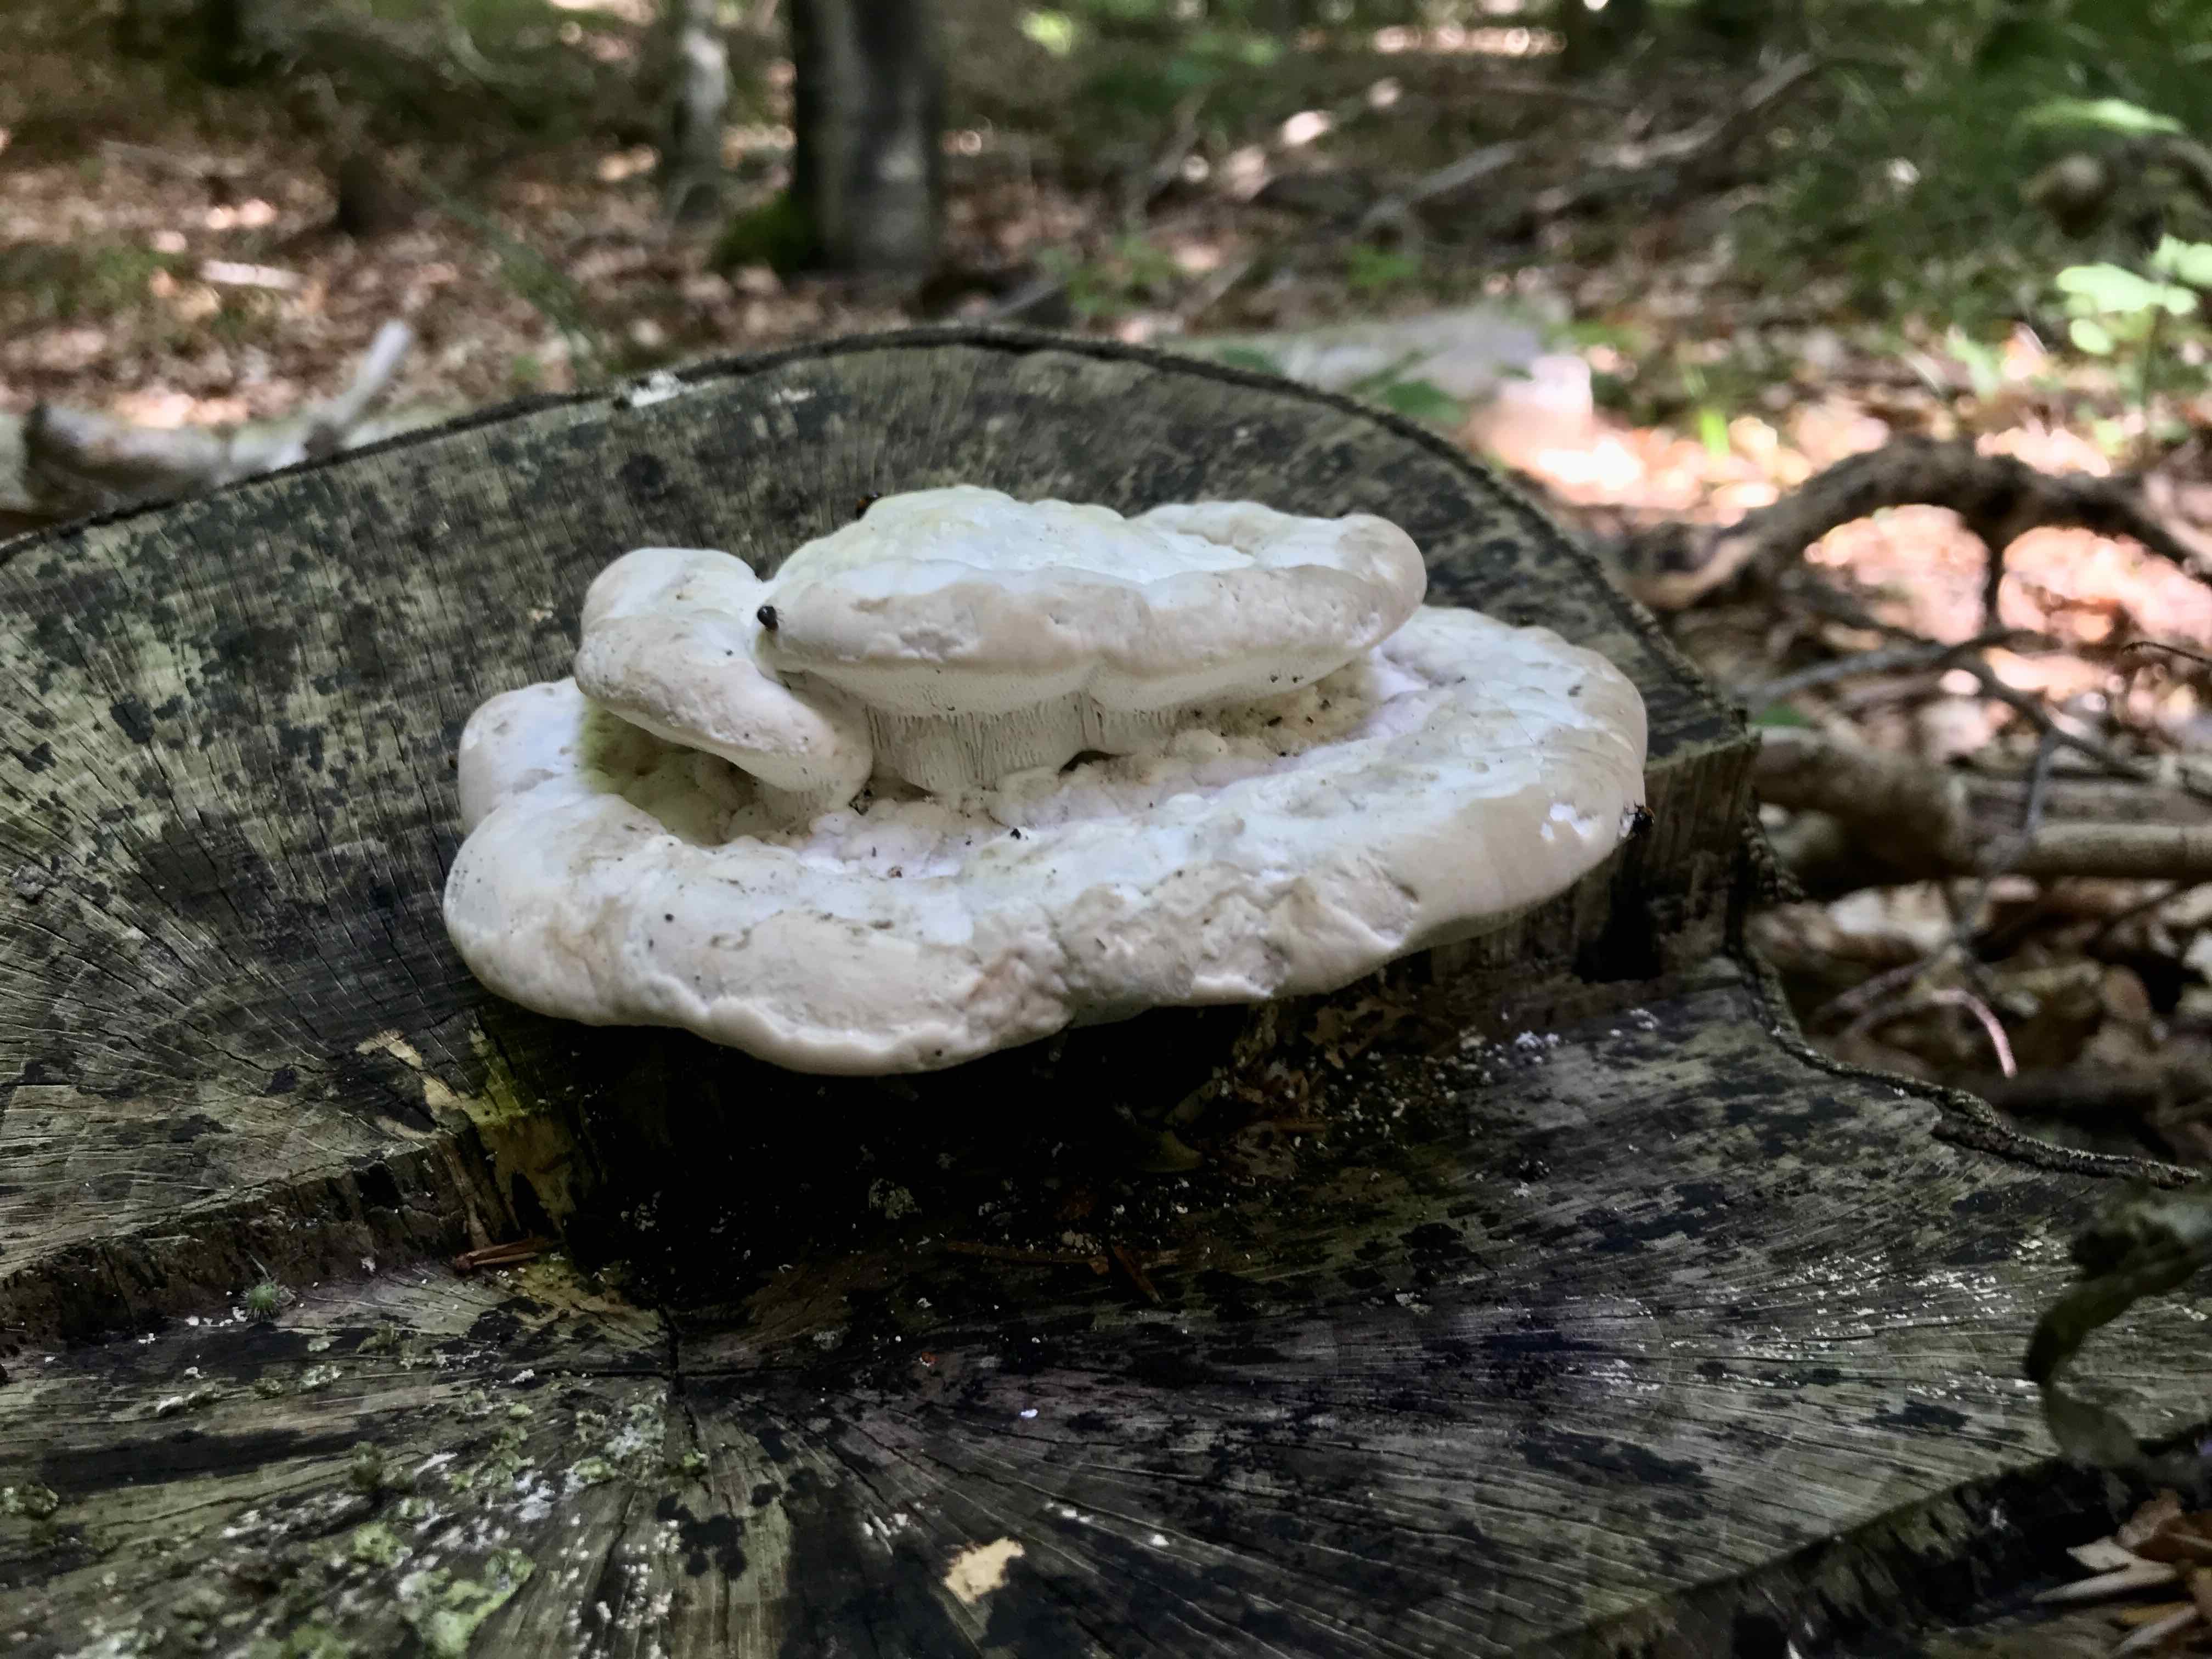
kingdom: Fungi
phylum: Basidiomycota
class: Agaricomycetes
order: Polyporales
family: Polyporaceae
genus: Trametes
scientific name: Trametes gibbosa
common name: puklet læderporesvamp
